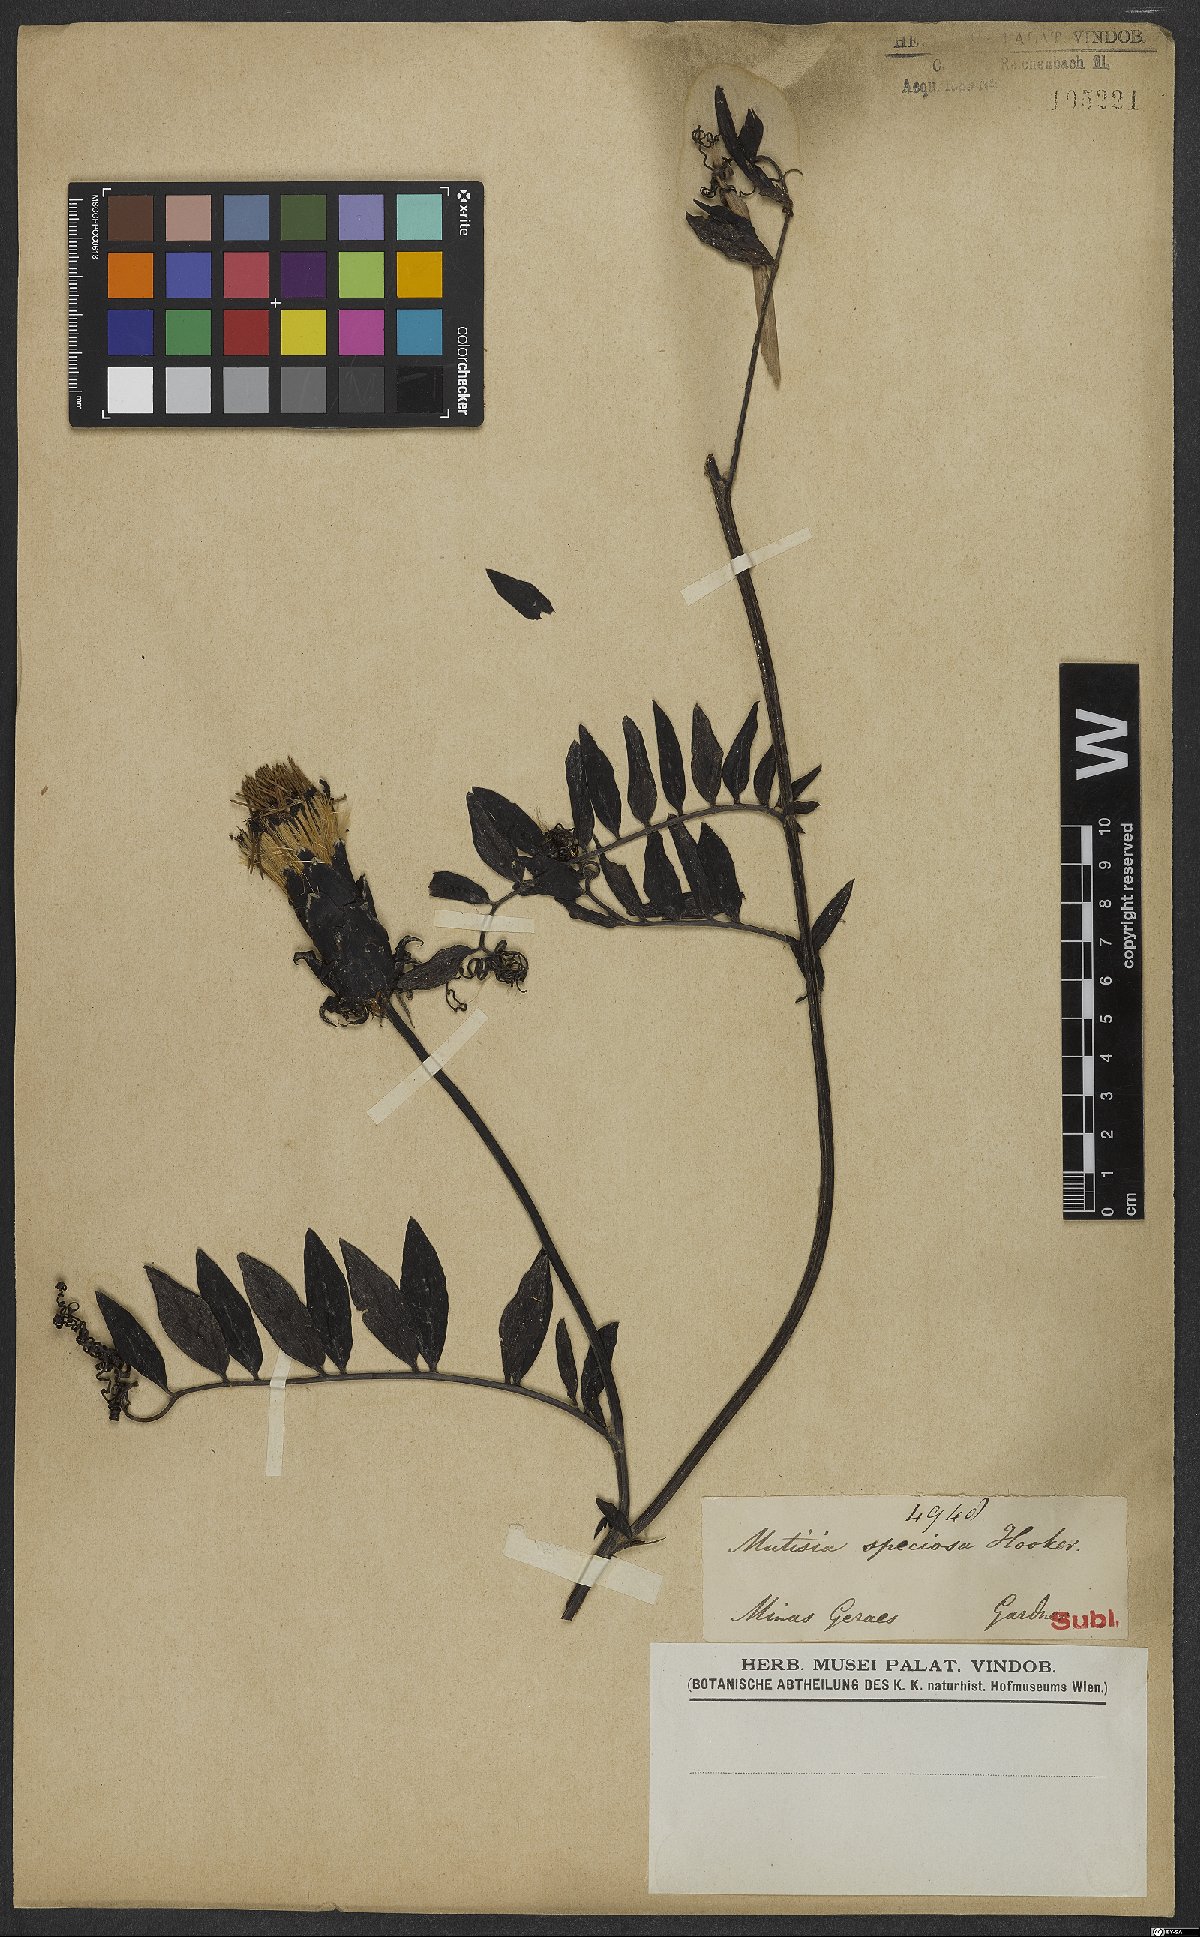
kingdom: Plantae
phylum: Tracheophyta
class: Magnoliopsida
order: Asterales
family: Asteraceae
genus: Mutisia
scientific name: Mutisia speciosa
